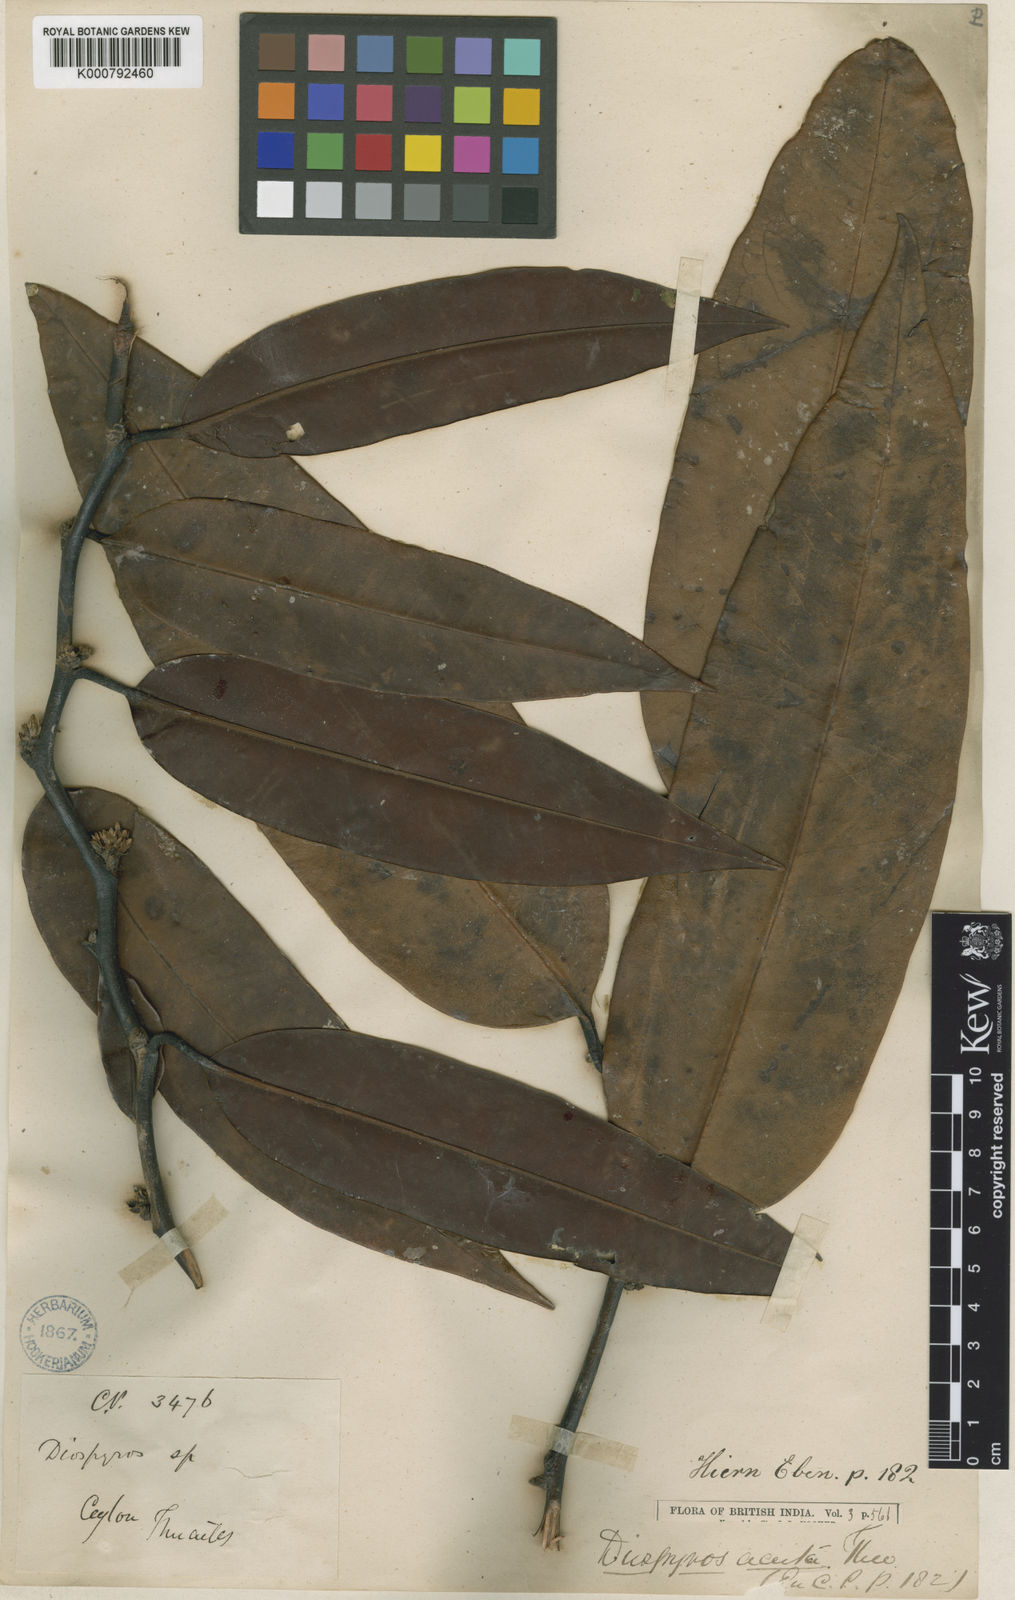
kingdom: Plantae
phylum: Tracheophyta
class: Magnoliopsida
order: Ericales
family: Ebenaceae
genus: Diospyros
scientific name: Diospyros acuta
